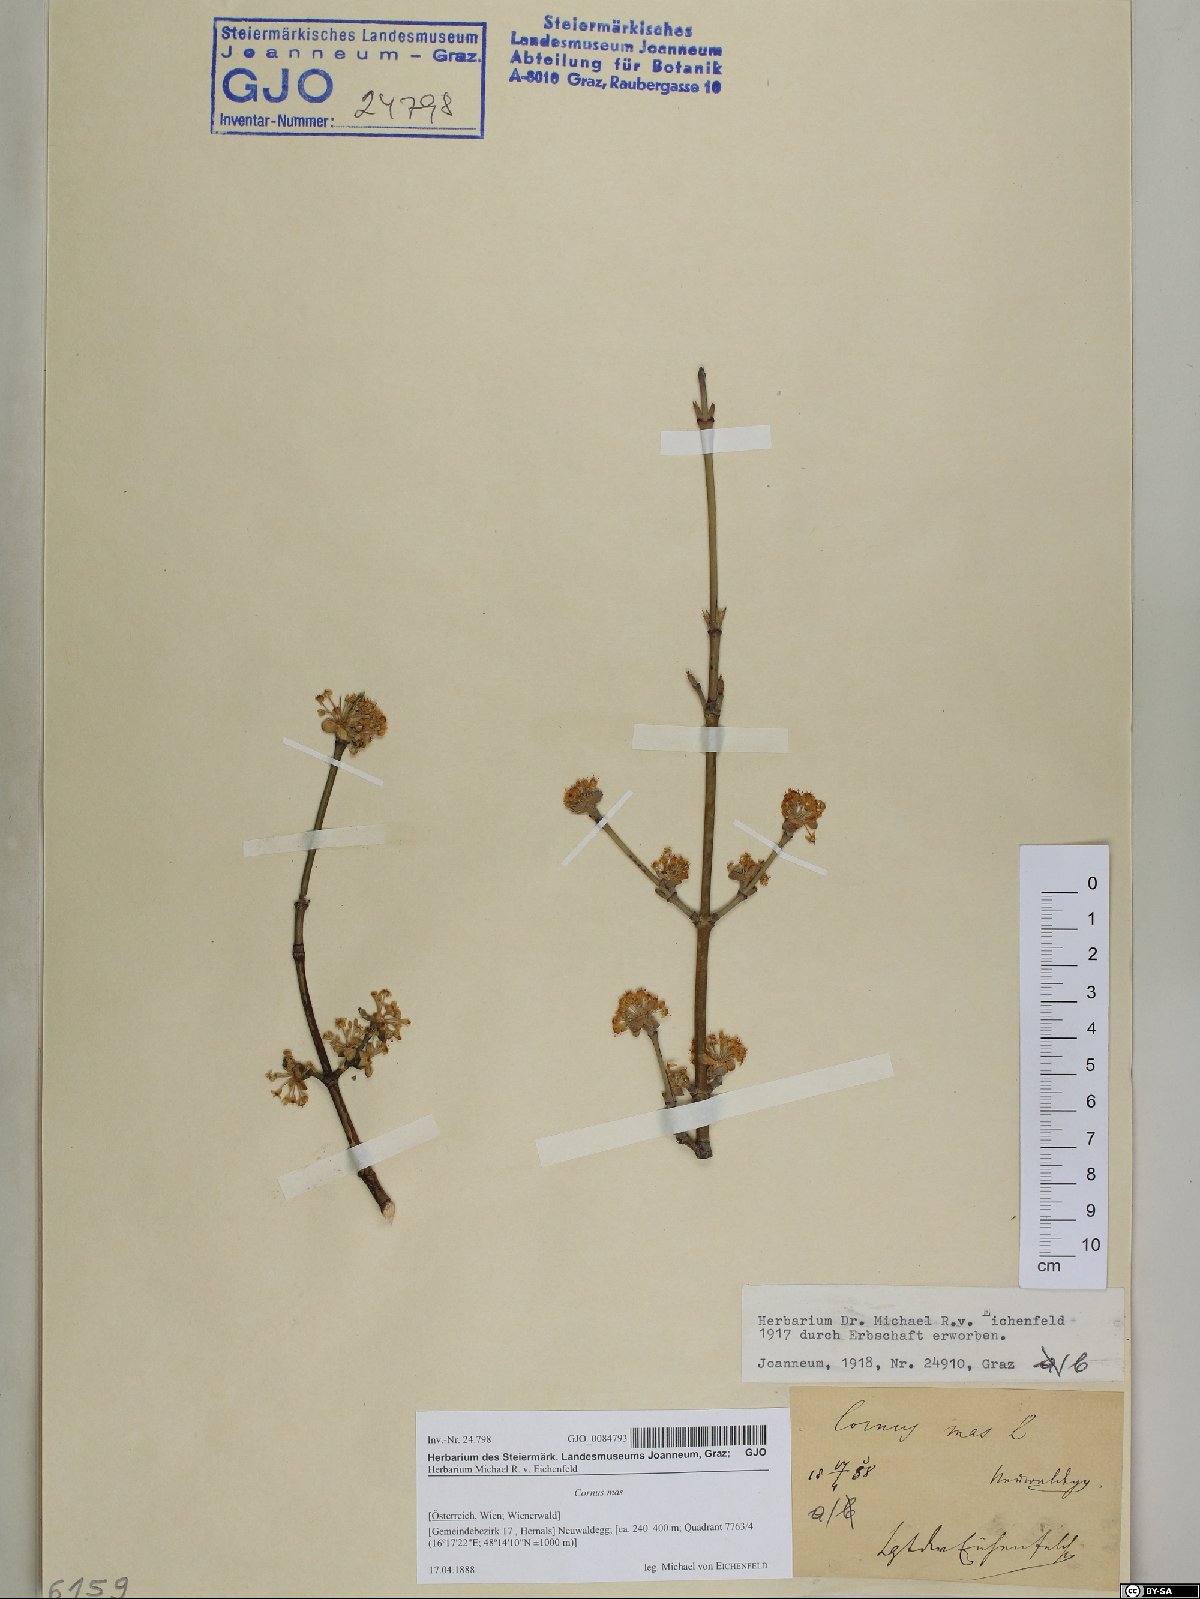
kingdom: Plantae
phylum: Tracheophyta
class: Magnoliopsida
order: Cornales
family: Cornaceae
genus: Cornus
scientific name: Cornus mas
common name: Cornelian-cherry
